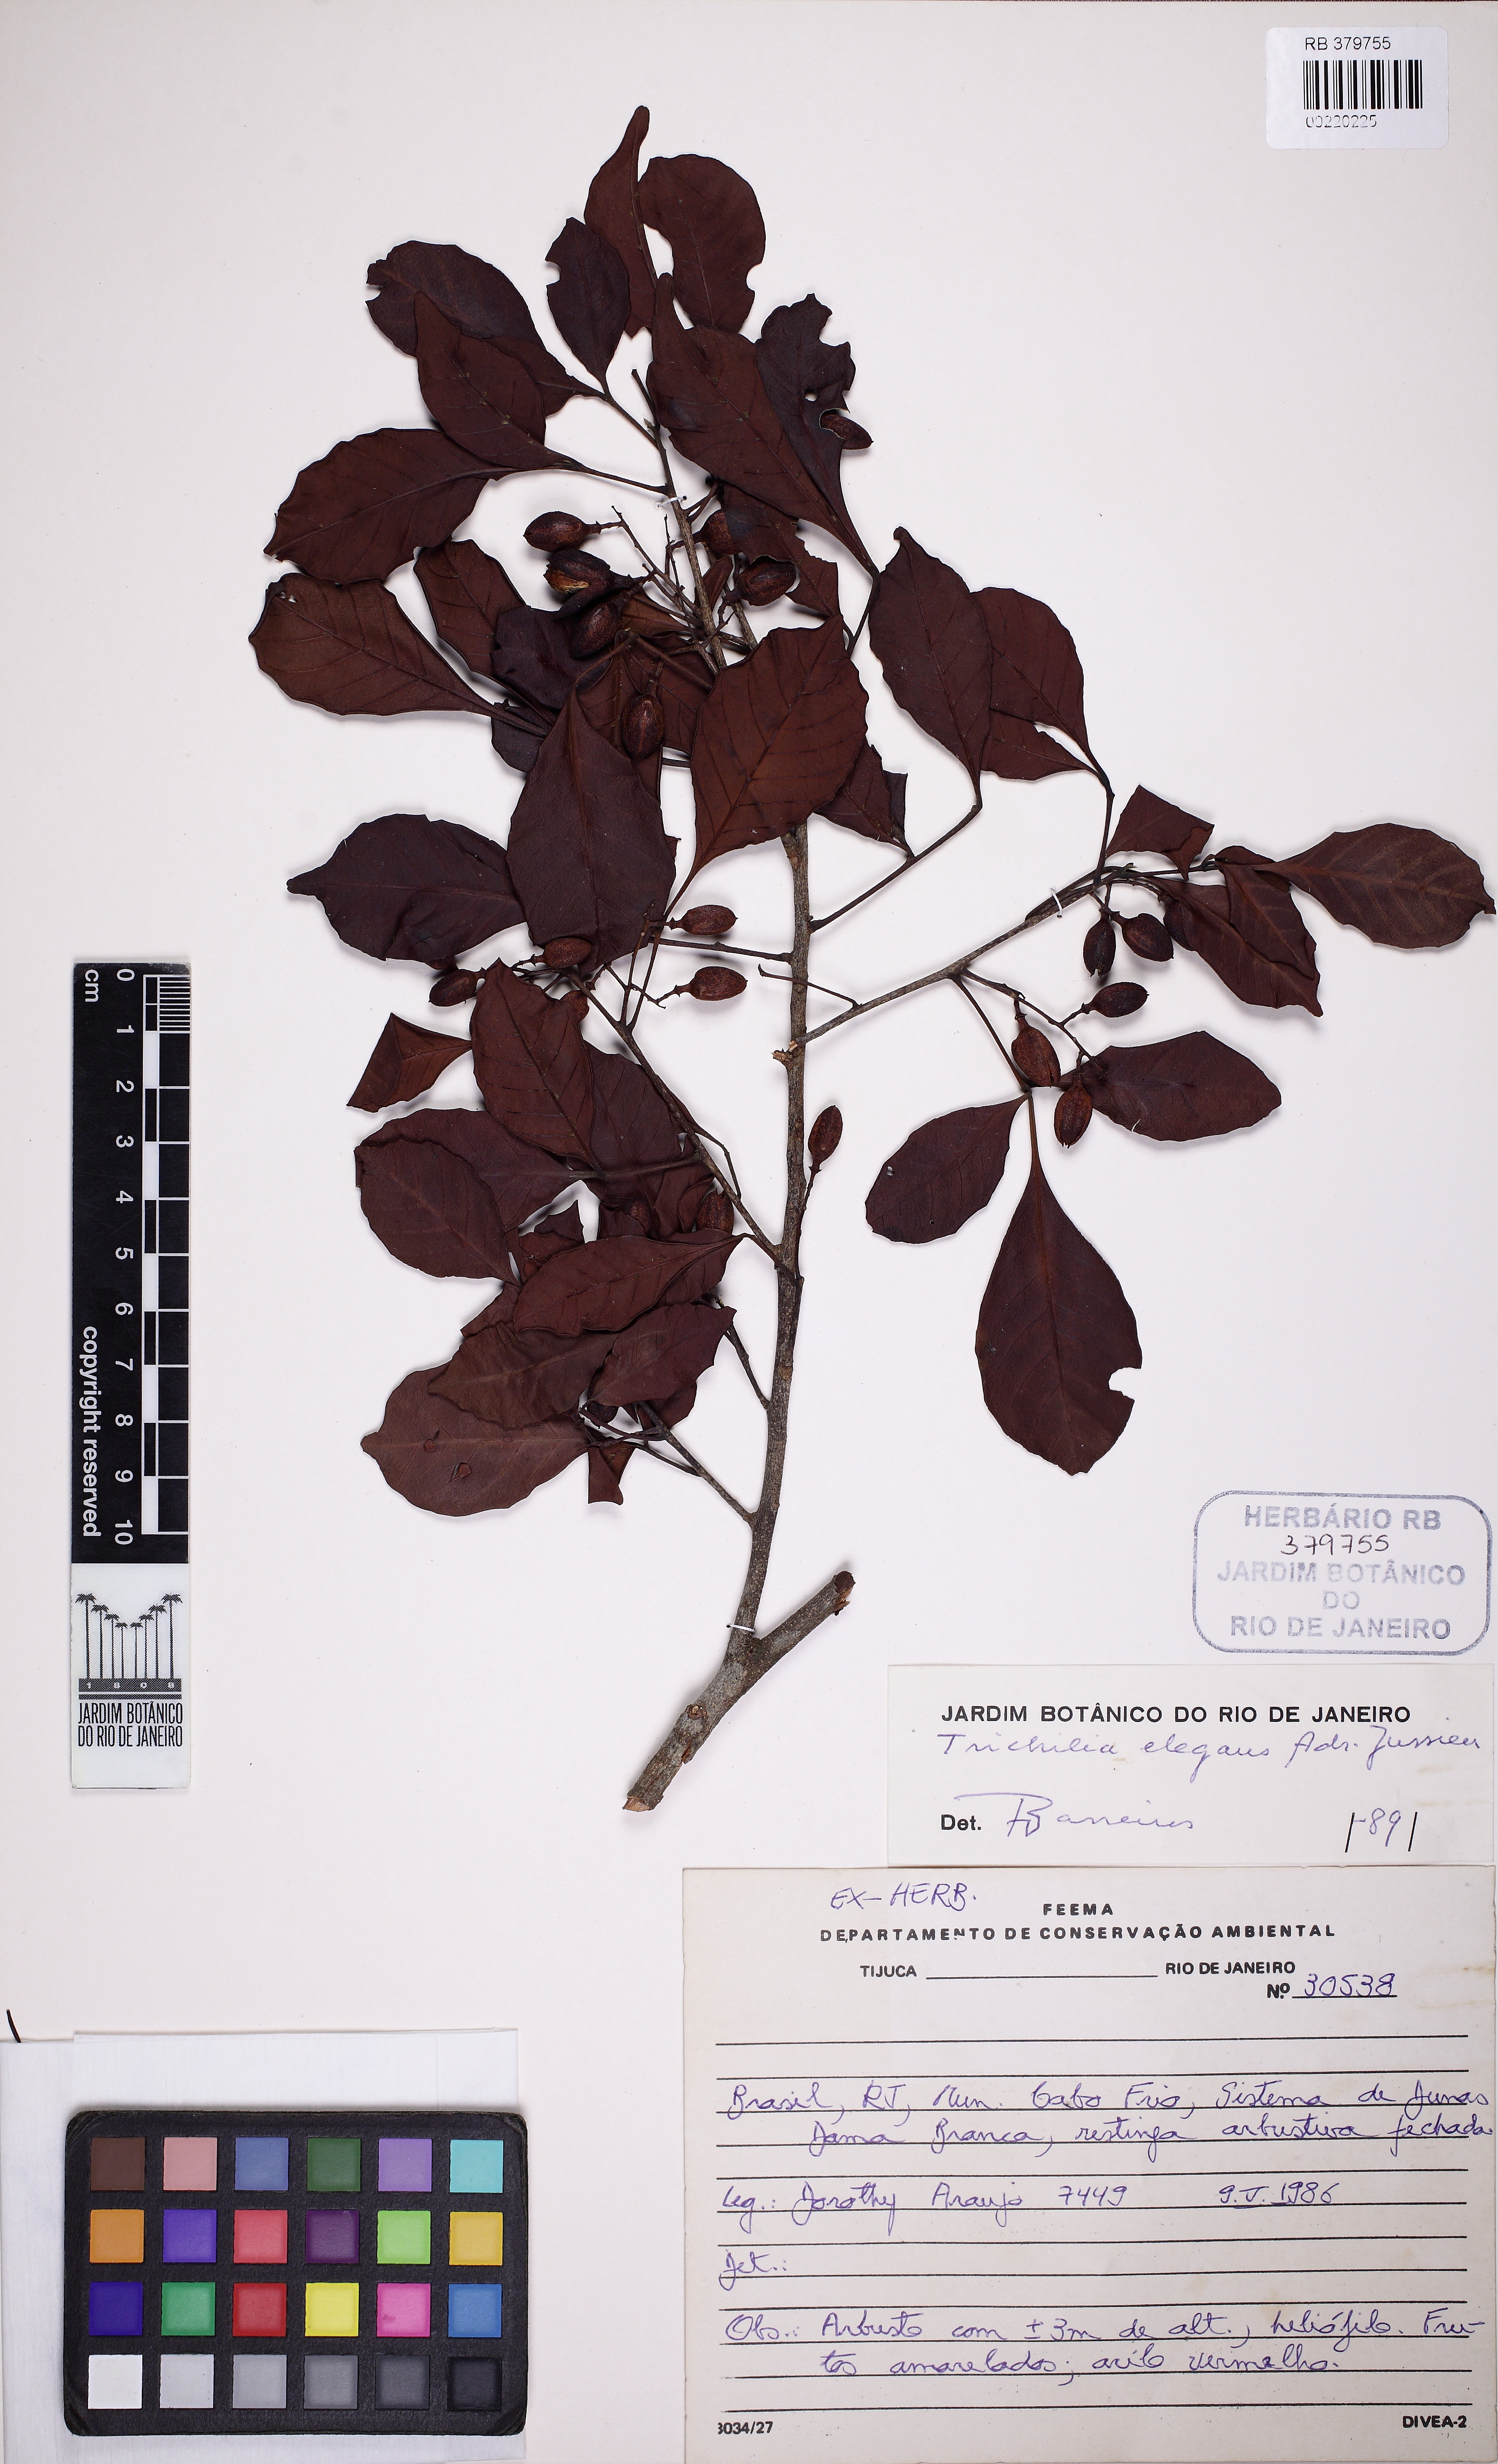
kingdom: Plantae
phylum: Tracheophyta
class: Magnoliopsida
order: Sapindales
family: Meliaceae
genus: Trichilia
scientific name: Trichilia elegans
